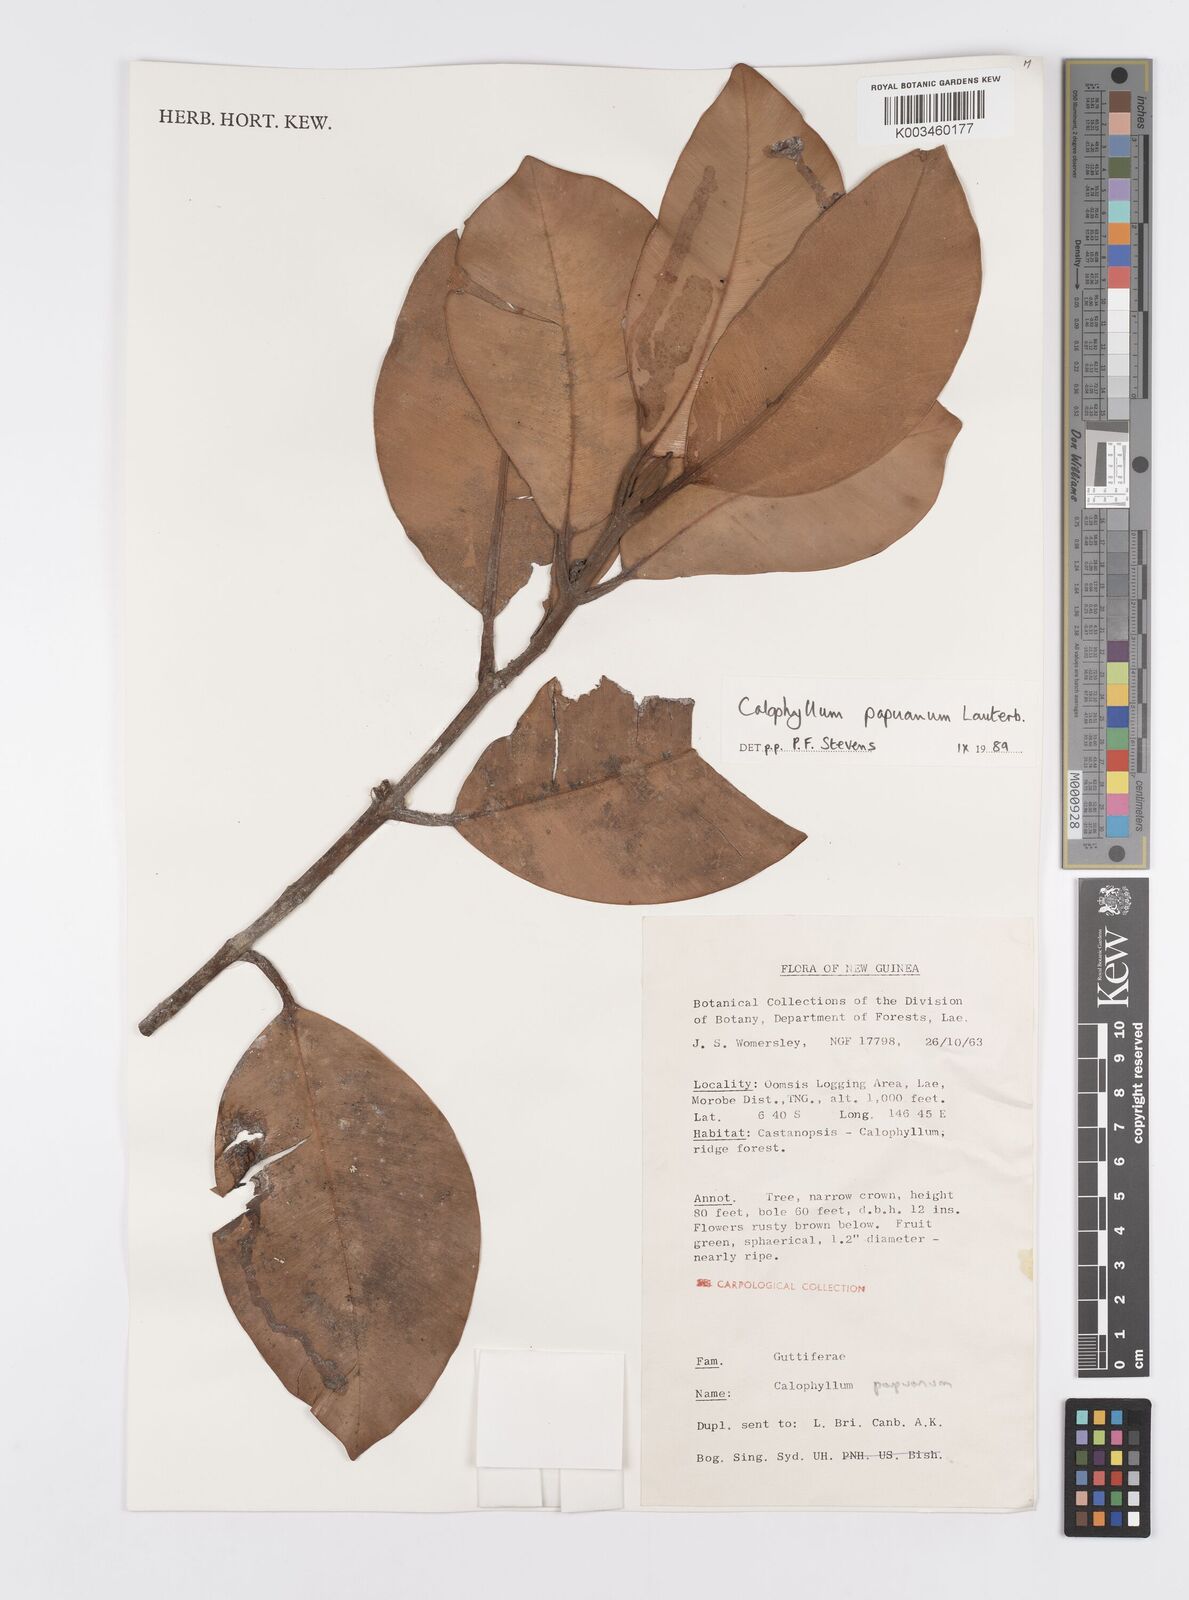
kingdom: Plantae
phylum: Tracheophyta
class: Magnoliopsida
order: Malpighiales
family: Calophyllaceae
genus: Calophyllum
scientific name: Calophyllum papuanum
